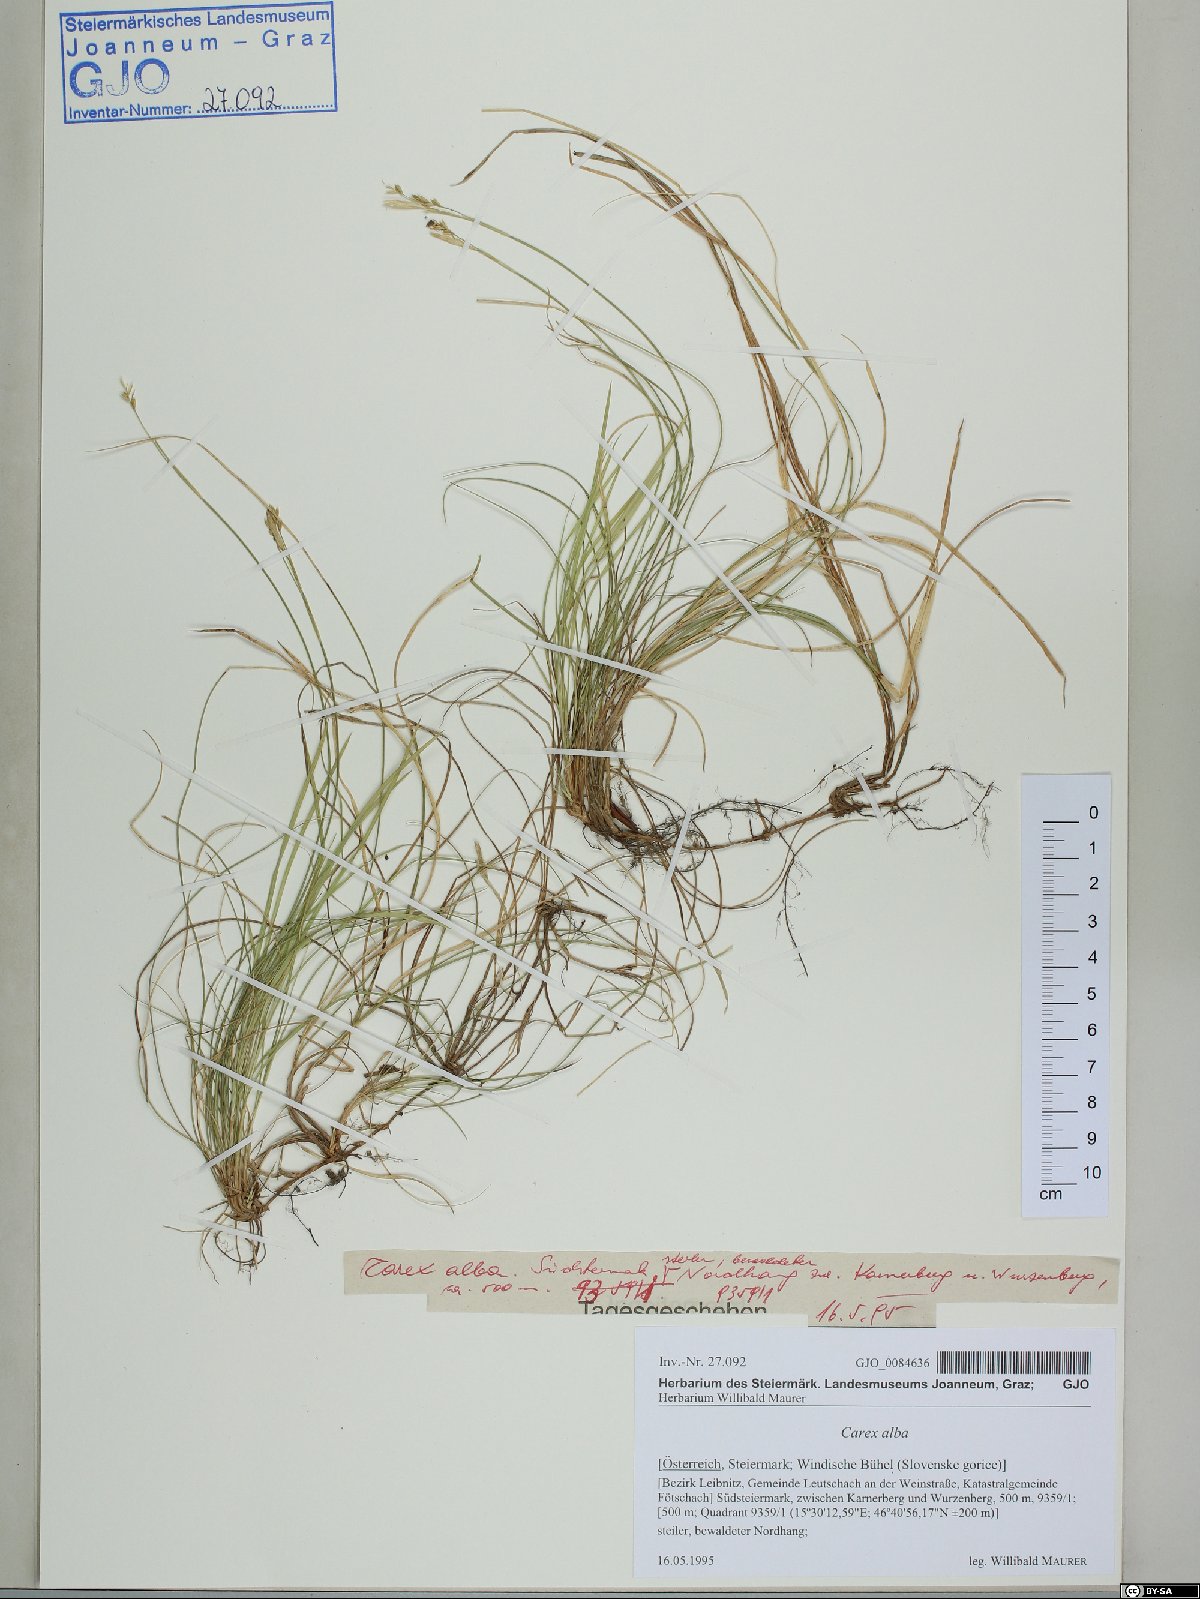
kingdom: Plantae
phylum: Tracheophyta
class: Liliopsida
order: Poales
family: Cyperaceae
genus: Carex
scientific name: Carex alba
